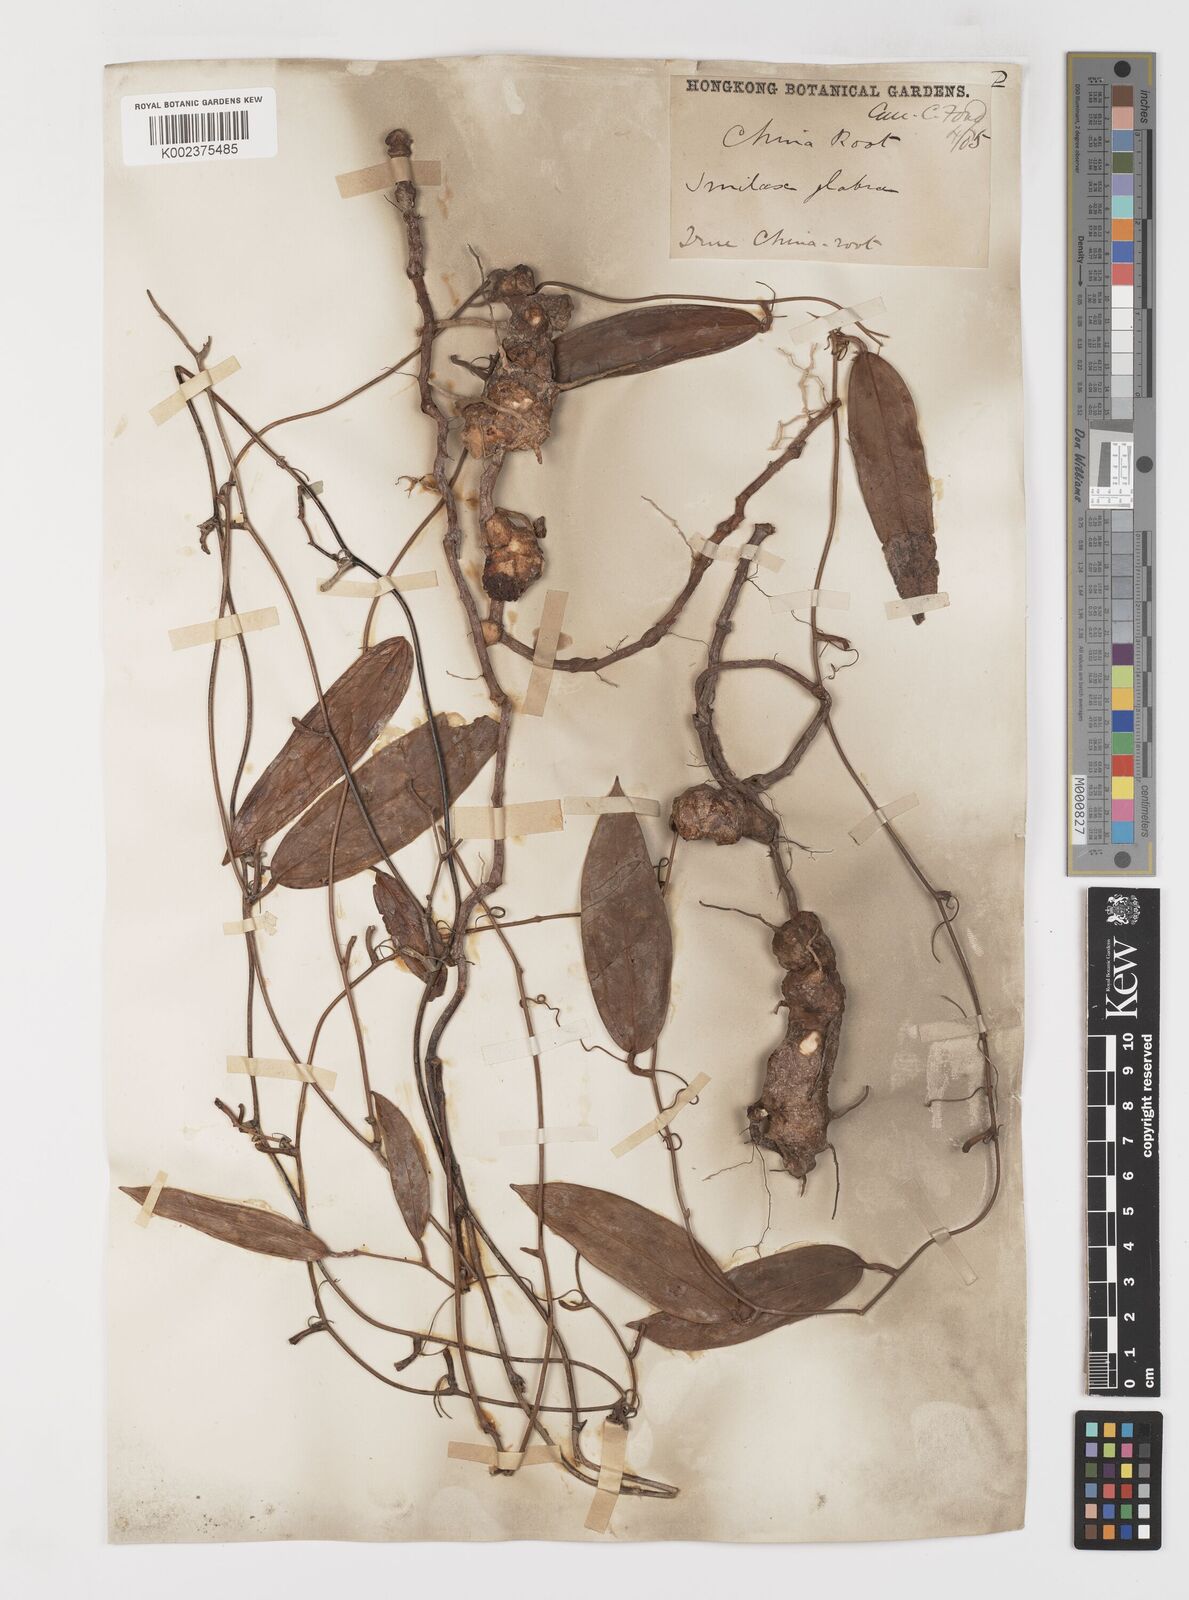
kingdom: Plantae
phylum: Tracheophyta
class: Liliopsida
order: Liliales
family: Smilacaceae
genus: Smilax
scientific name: Smilax glabra
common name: Chinese smilax
